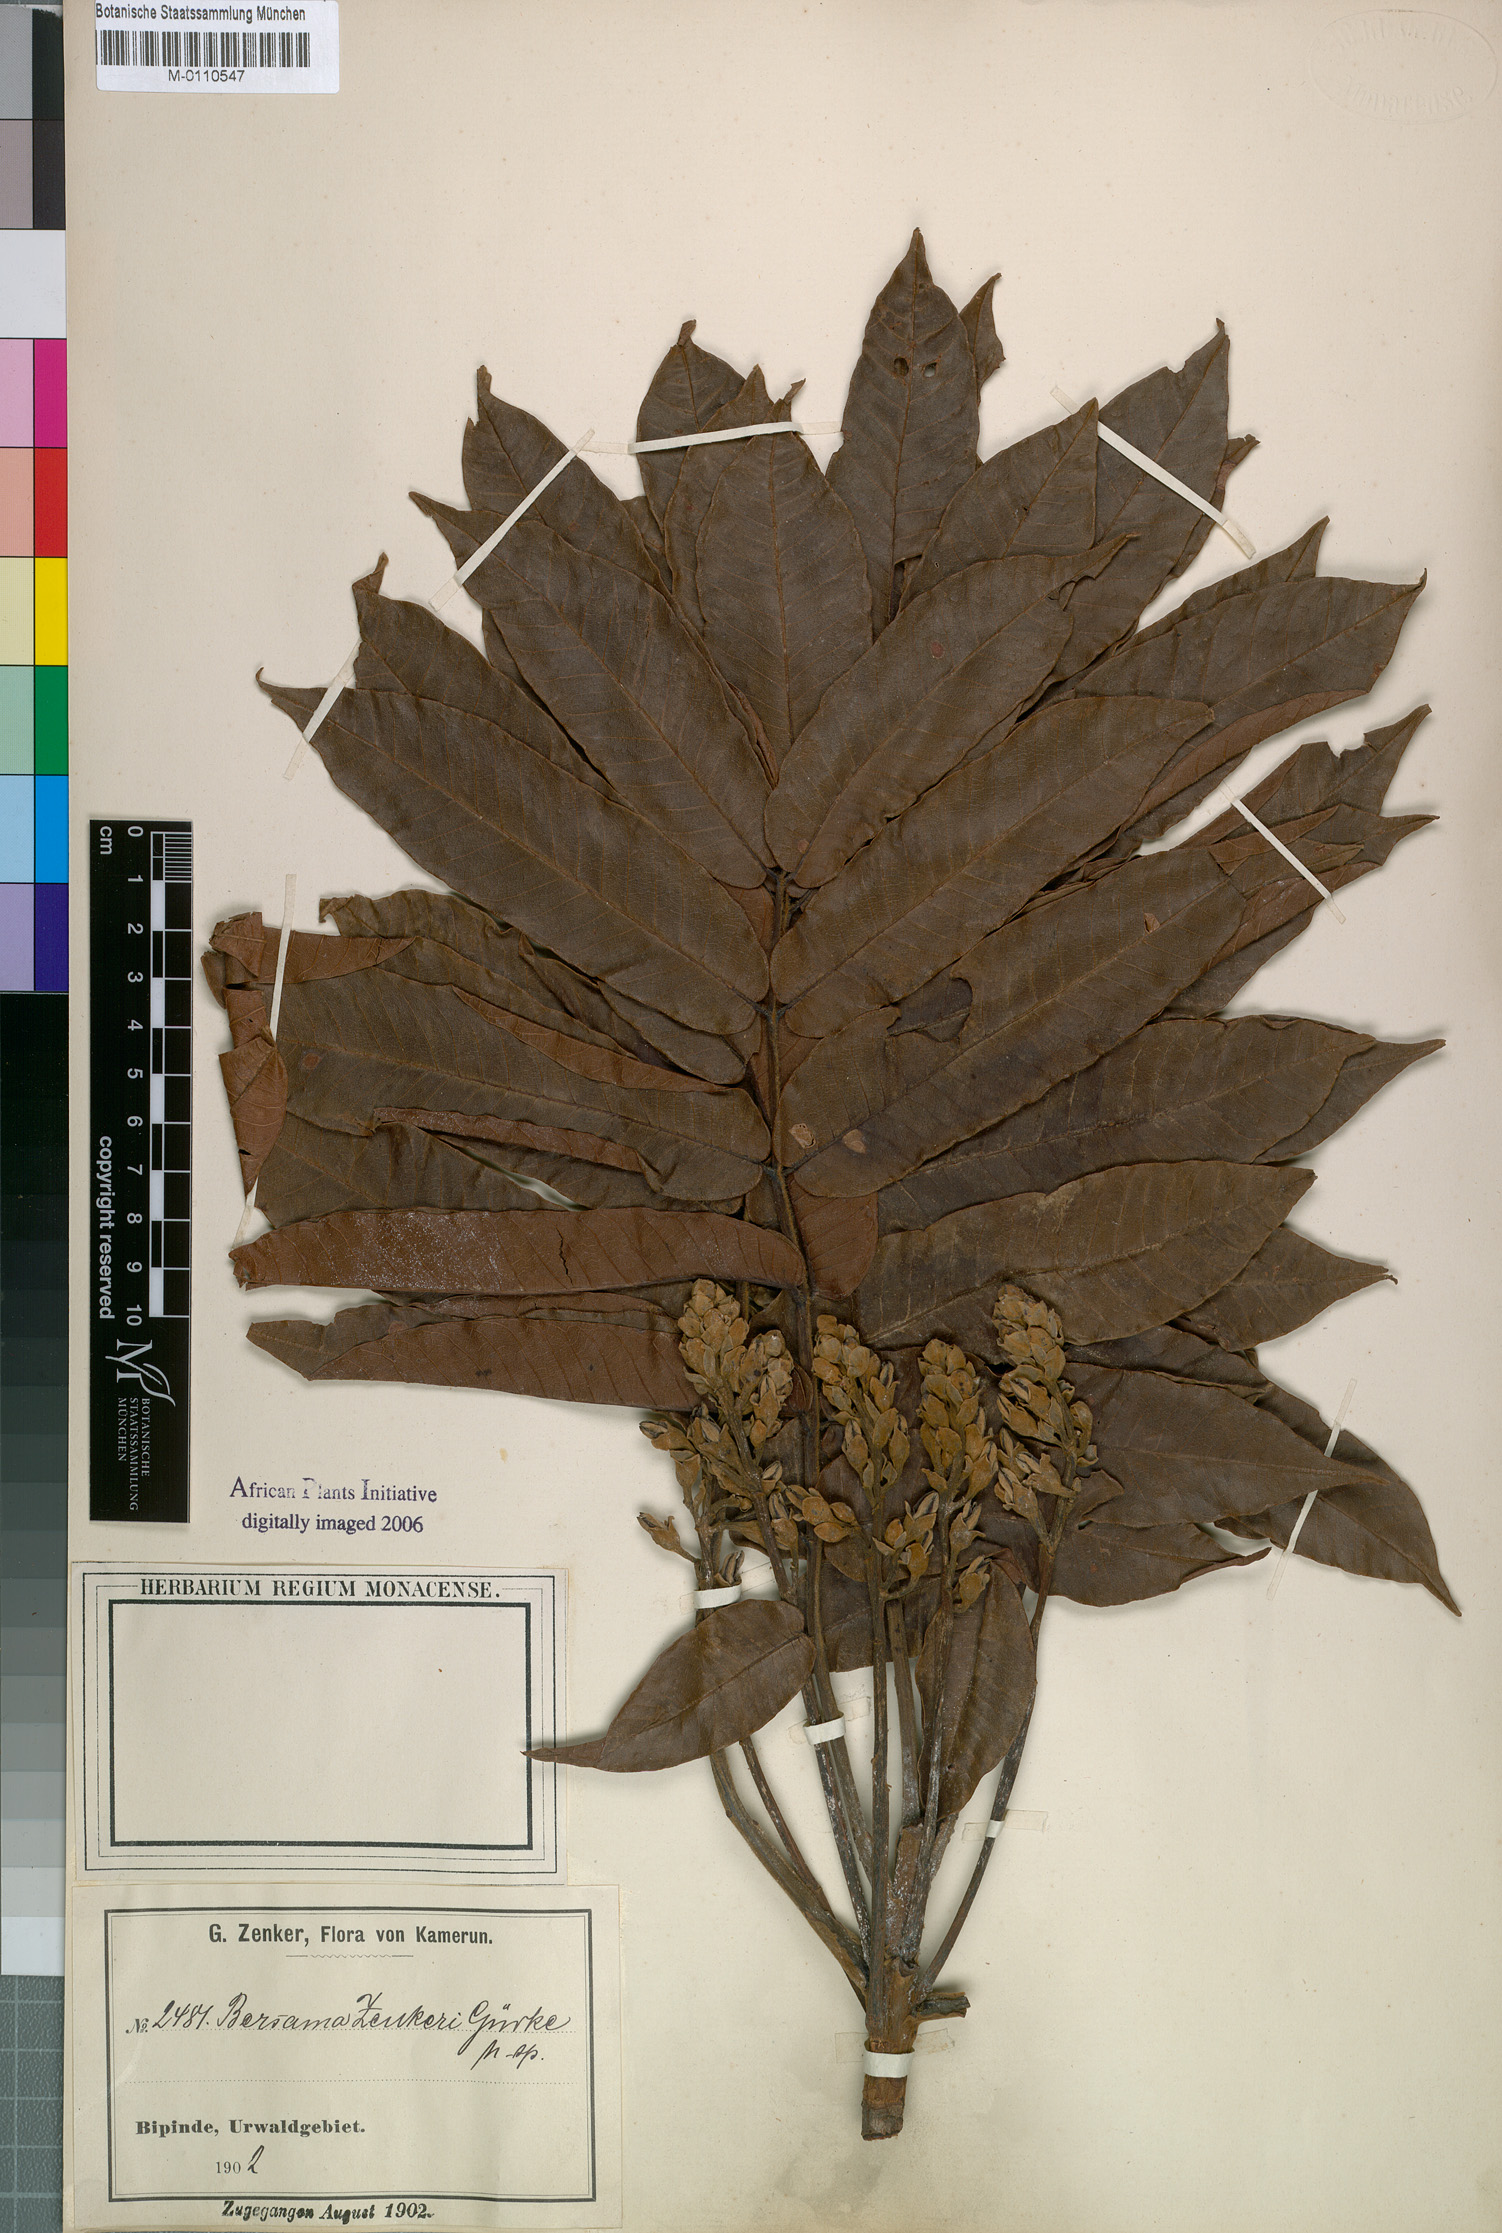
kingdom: Plantae
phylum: Tracheophyta
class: Magnoliopsida
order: Geraniales
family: Melianthaceae
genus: Bersama
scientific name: Bersama
